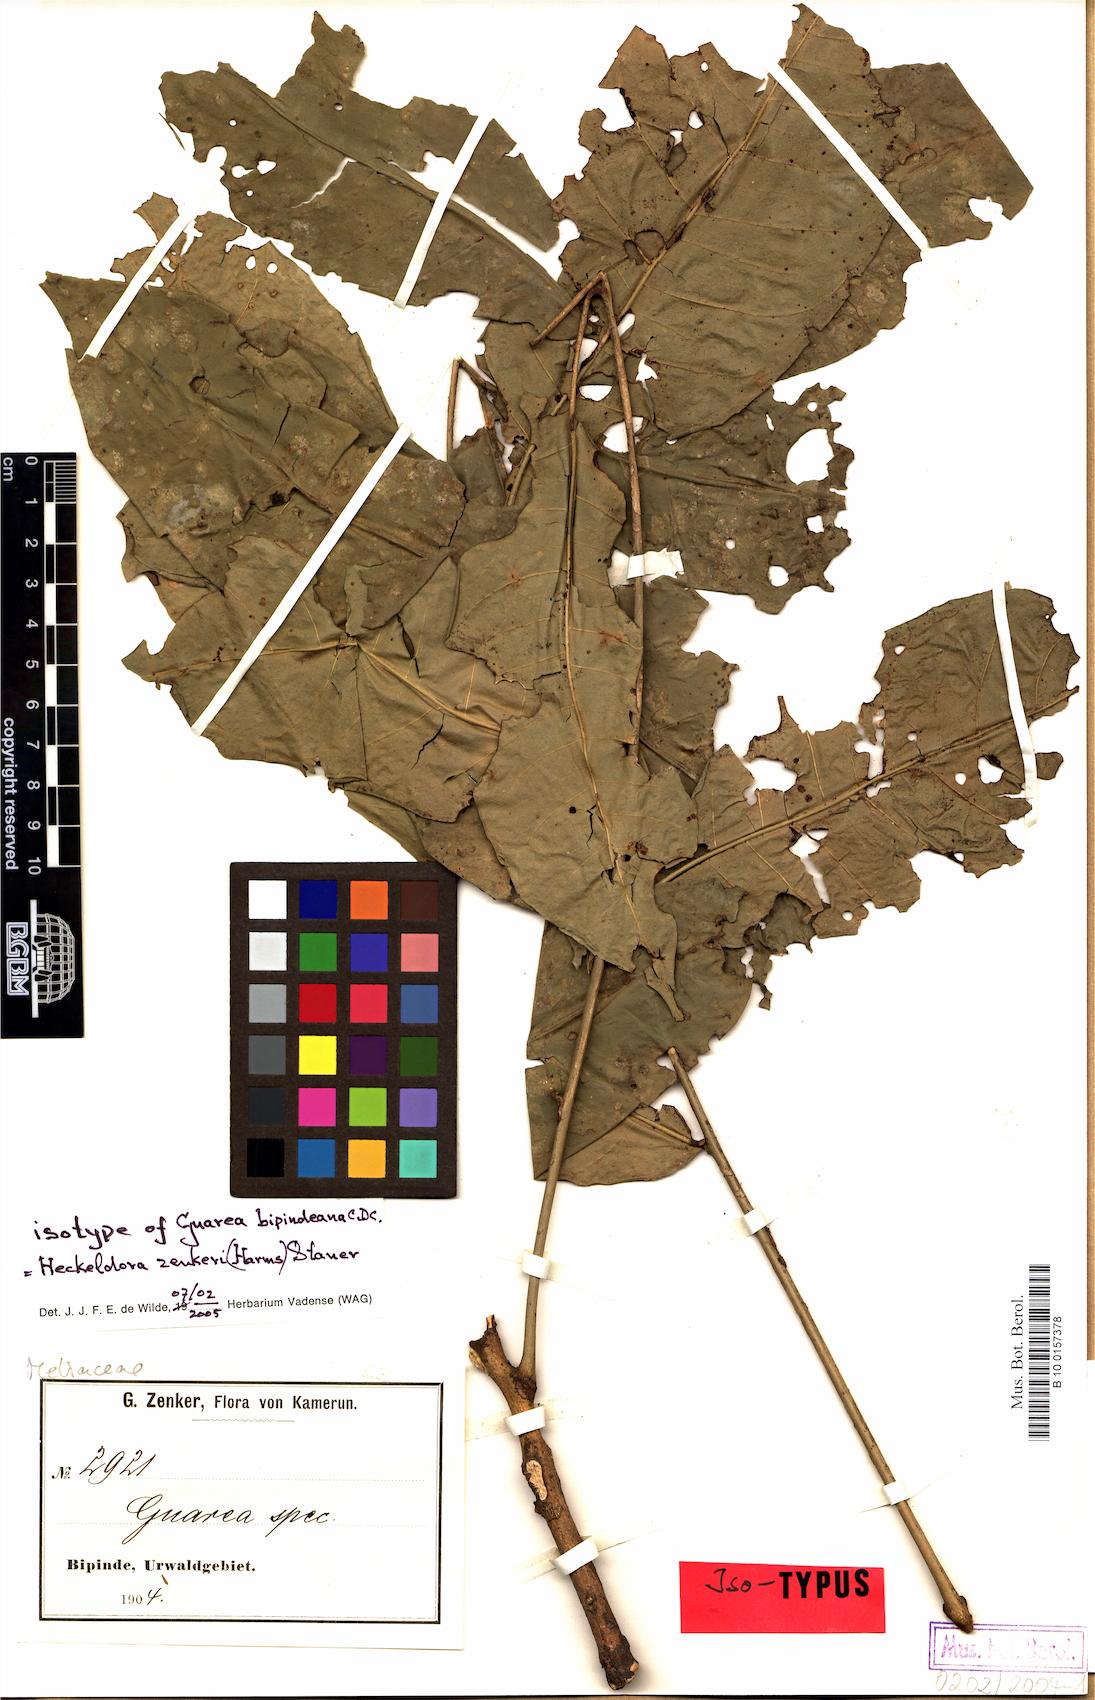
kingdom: Plantae
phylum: Tracheophyta
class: Magnoliopsida
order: Sapindales
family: Meliaceae
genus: Heckeldora
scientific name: Heckeldora zenkeri
